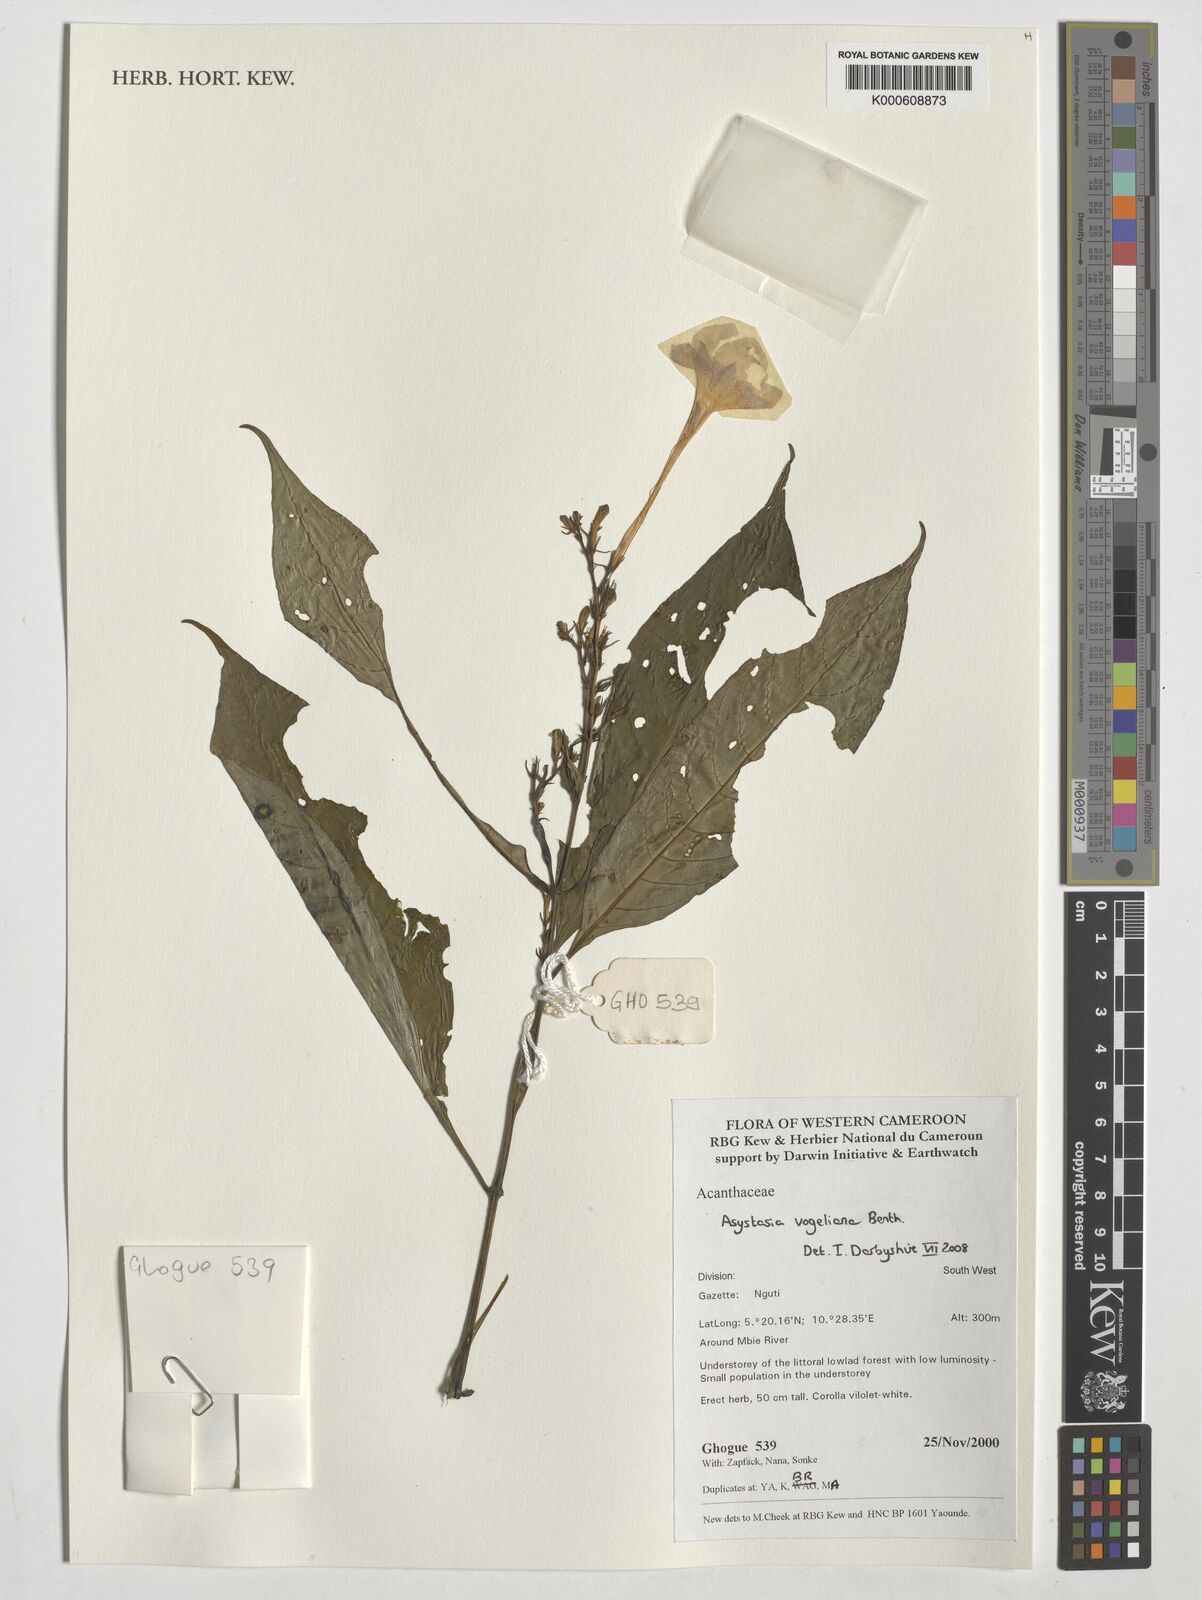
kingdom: Plantae
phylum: Tracheophyta
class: Magnoliopsida
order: Lamiales
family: Acanthaceae
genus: Asystasia
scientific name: Asystasia vogeliana
